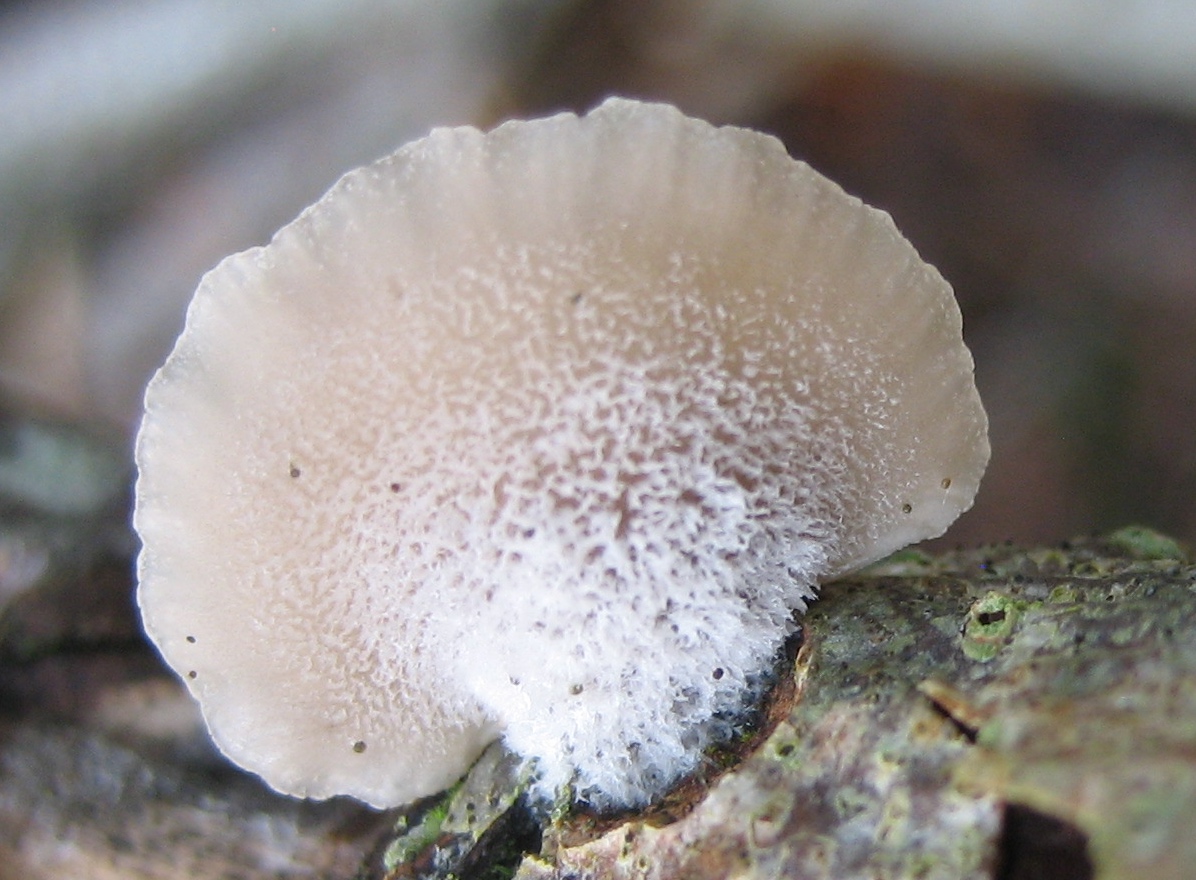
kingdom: Fungi
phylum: Basidiomycota
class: Agaricomycetes
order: Agaricales
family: Pleurotaceae
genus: Hohenbuehelia
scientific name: Hohenbuehelia
